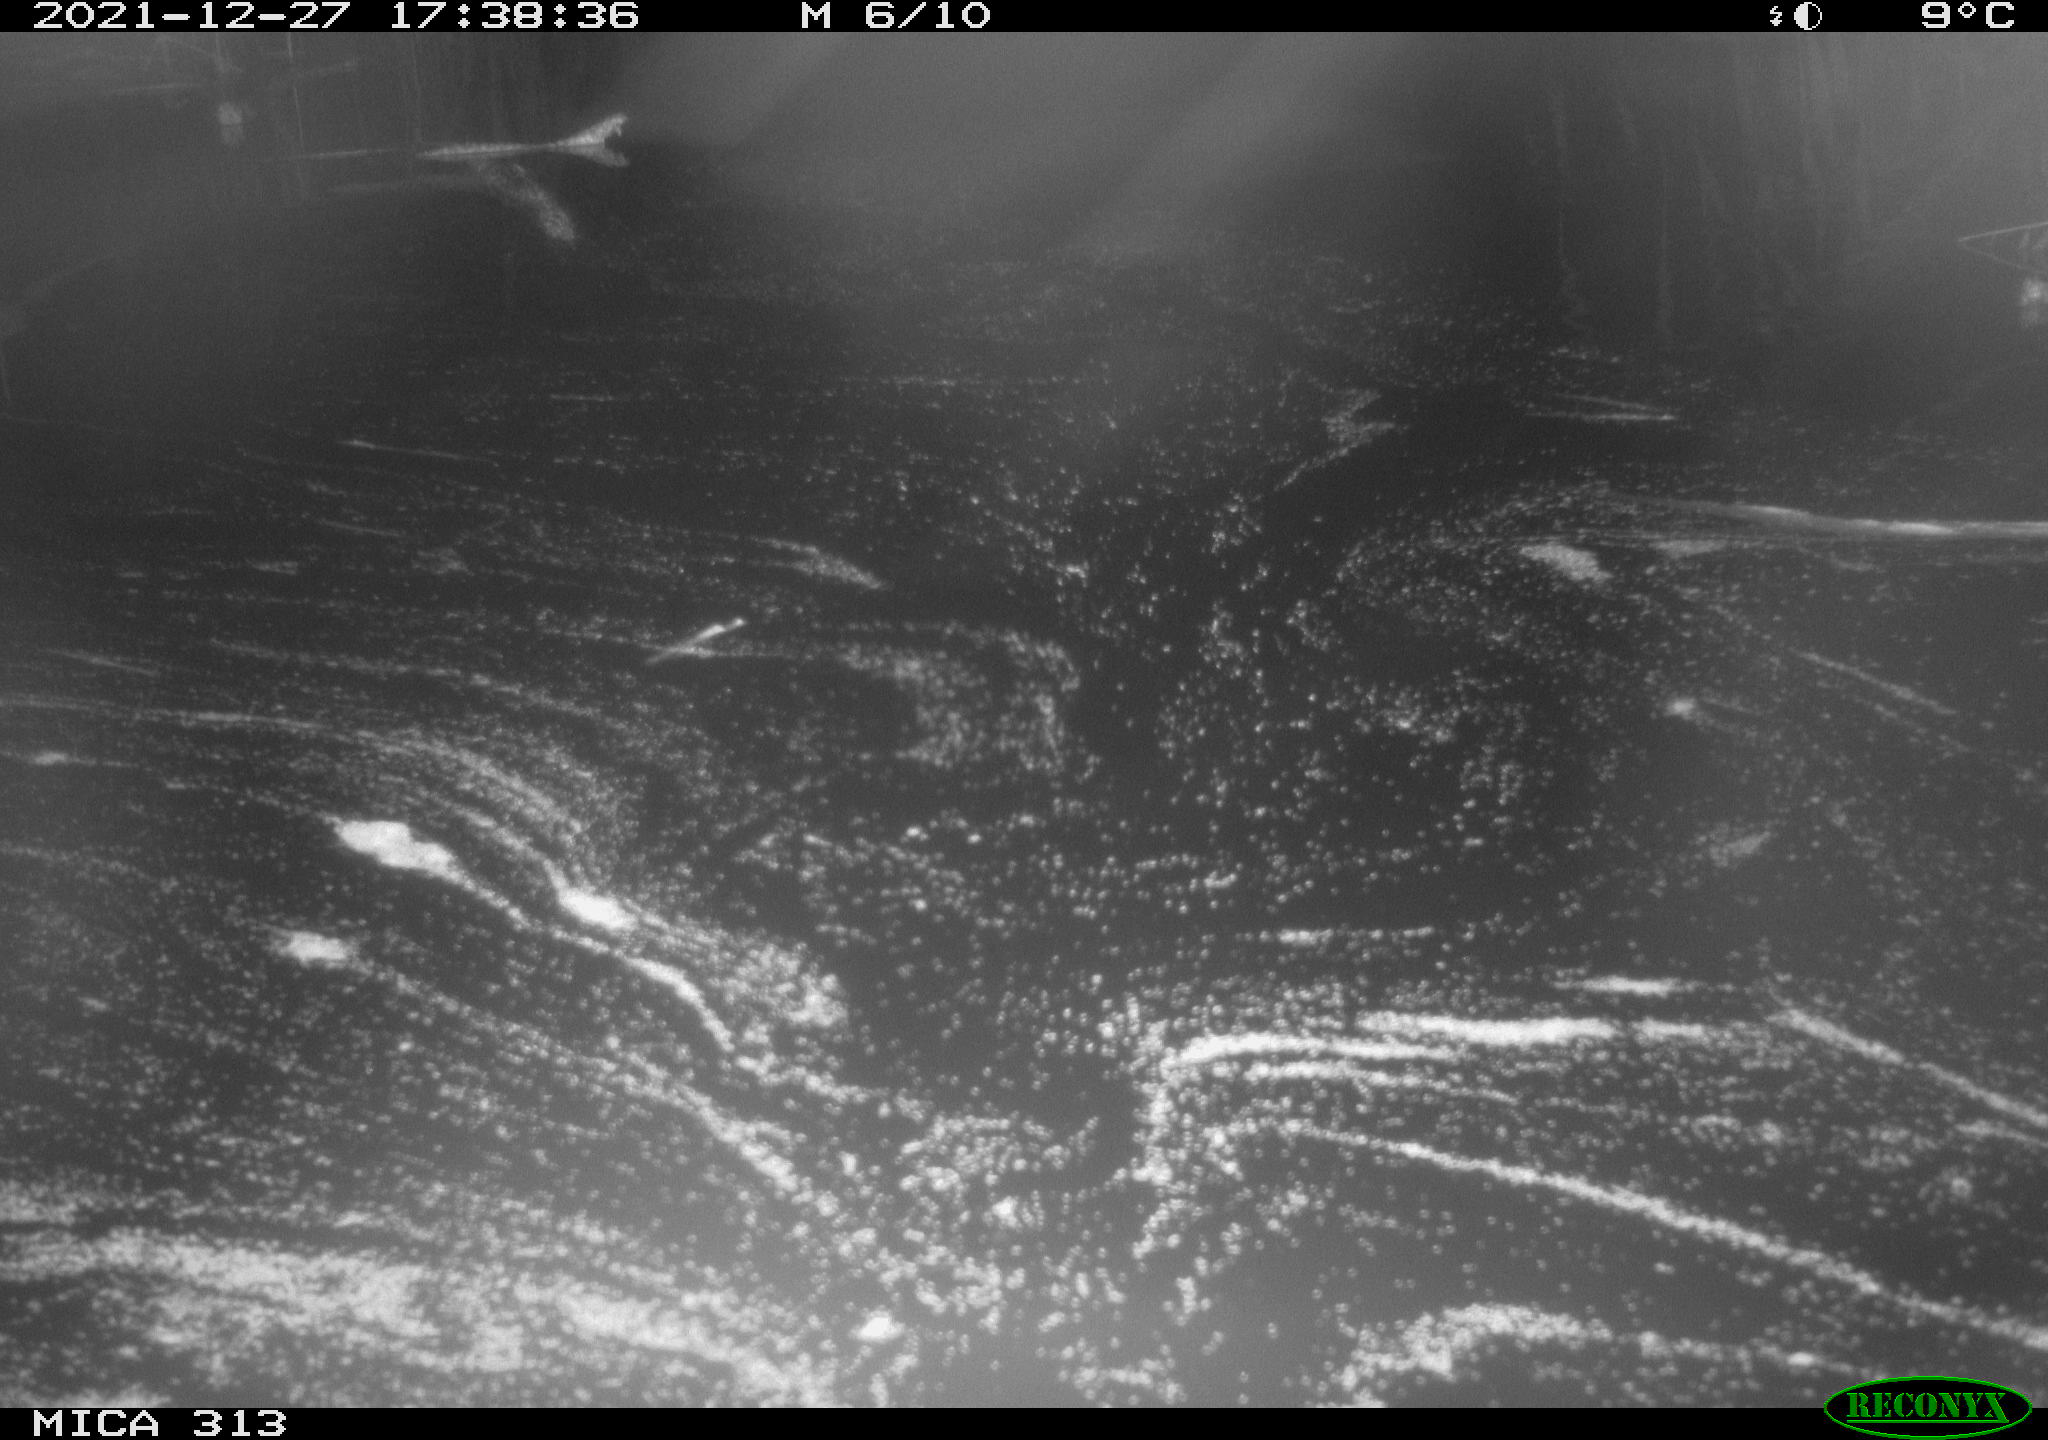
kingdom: Animalia
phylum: Chordata
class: Aves
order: Gruiformes
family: Rallidae
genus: Gallinula
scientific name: Gallinula chloropus
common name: Common moorhen
